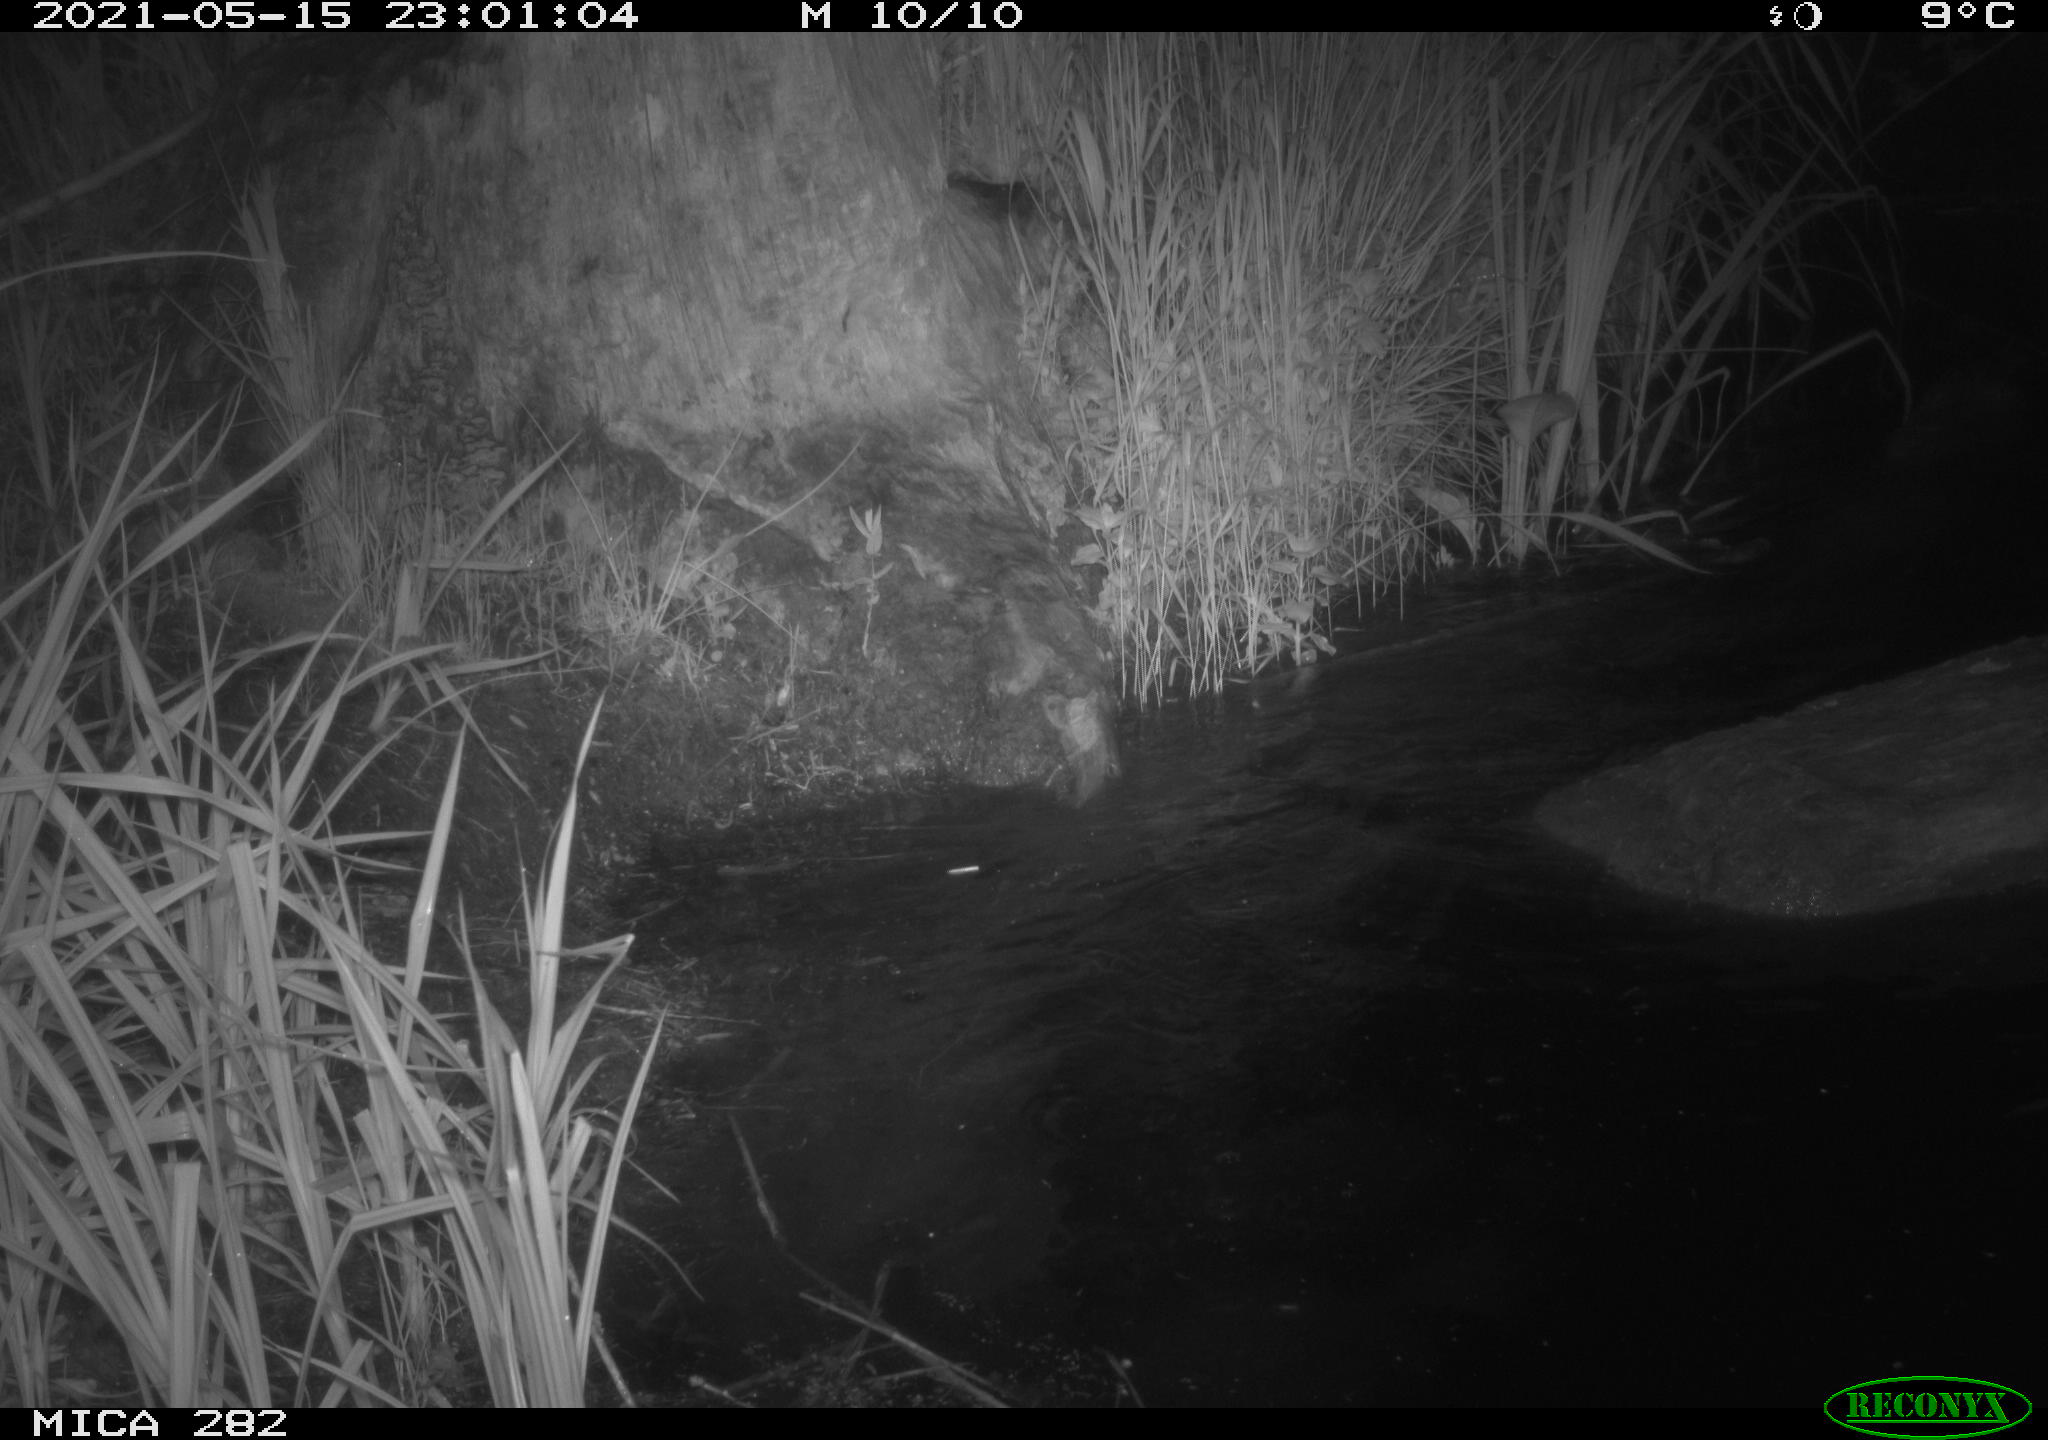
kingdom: Animalia
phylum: Chordata
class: Mammalia
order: Rodentia
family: Castoridae
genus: Castor
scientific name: Castor fiber
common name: Eurasian beaver
